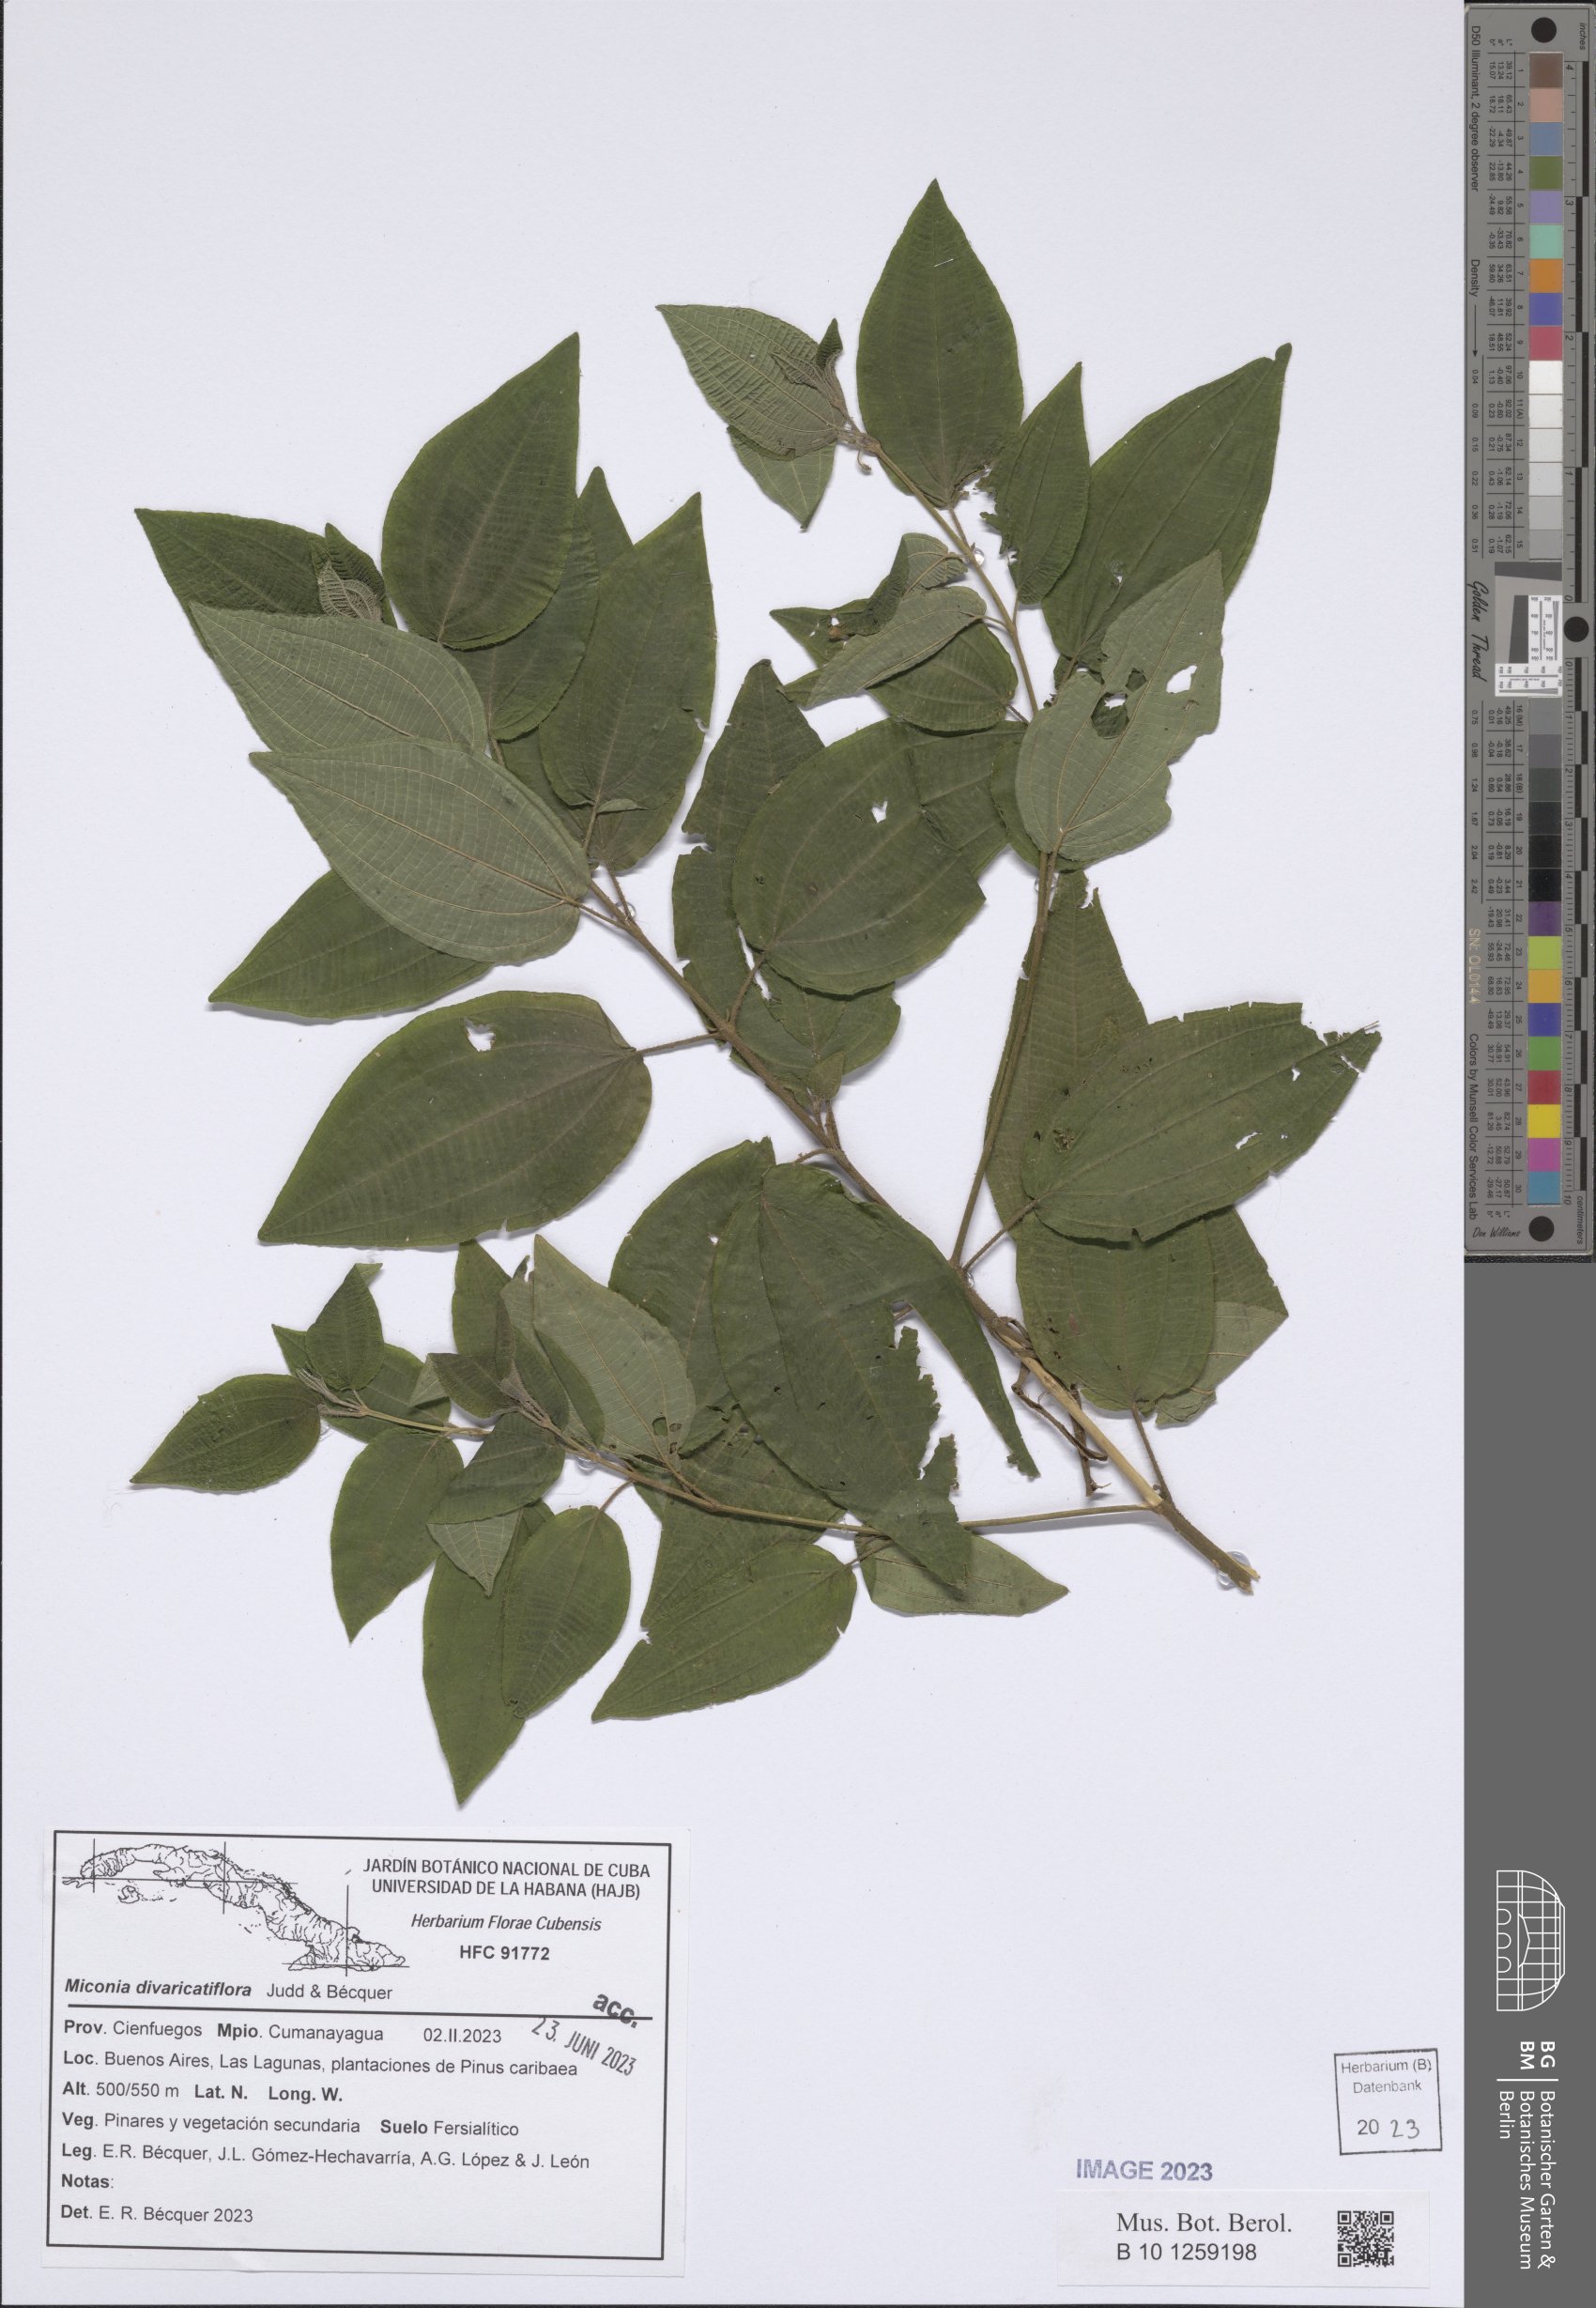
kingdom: Plantae
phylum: Tracheophyta
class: Magnoliopsida
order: Myrtales
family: Melastomataceae
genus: Miconia
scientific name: Miconia divaricatiflora
